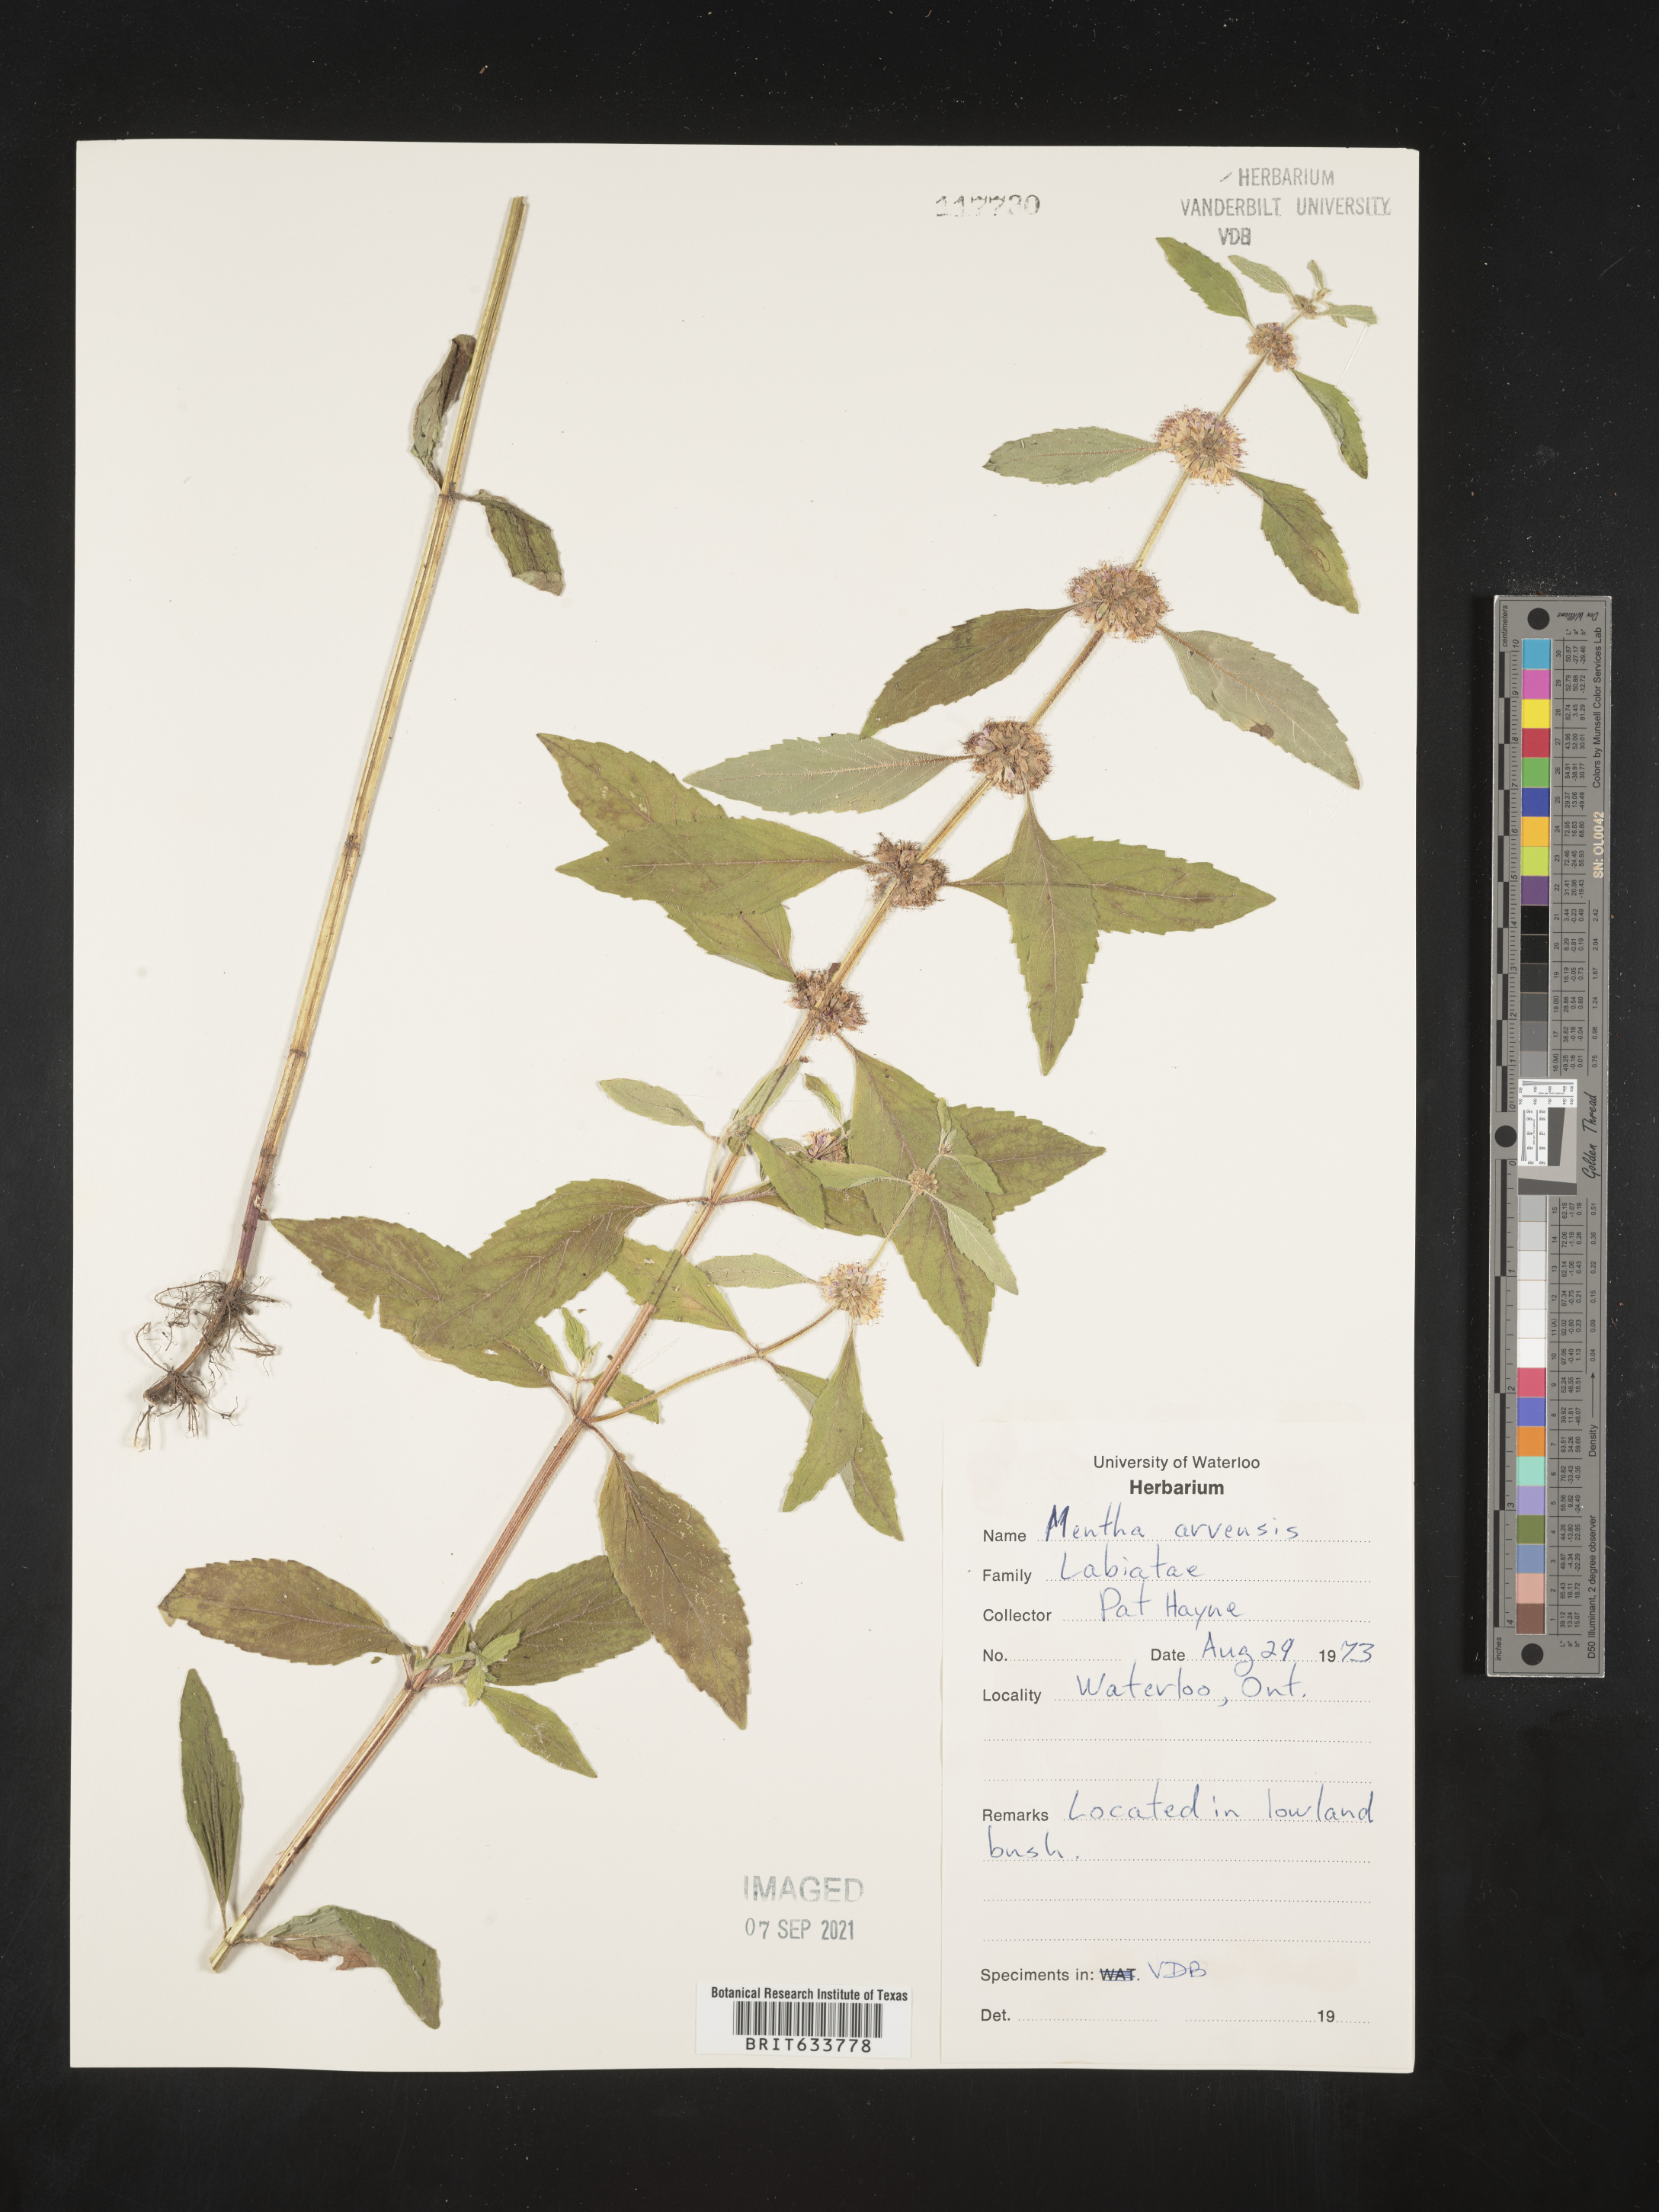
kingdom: Plantae
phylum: Tracheophyta
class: Magnoliopsida
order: Lamiales
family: Lamiaceae
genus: Mentha
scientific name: Mentha
